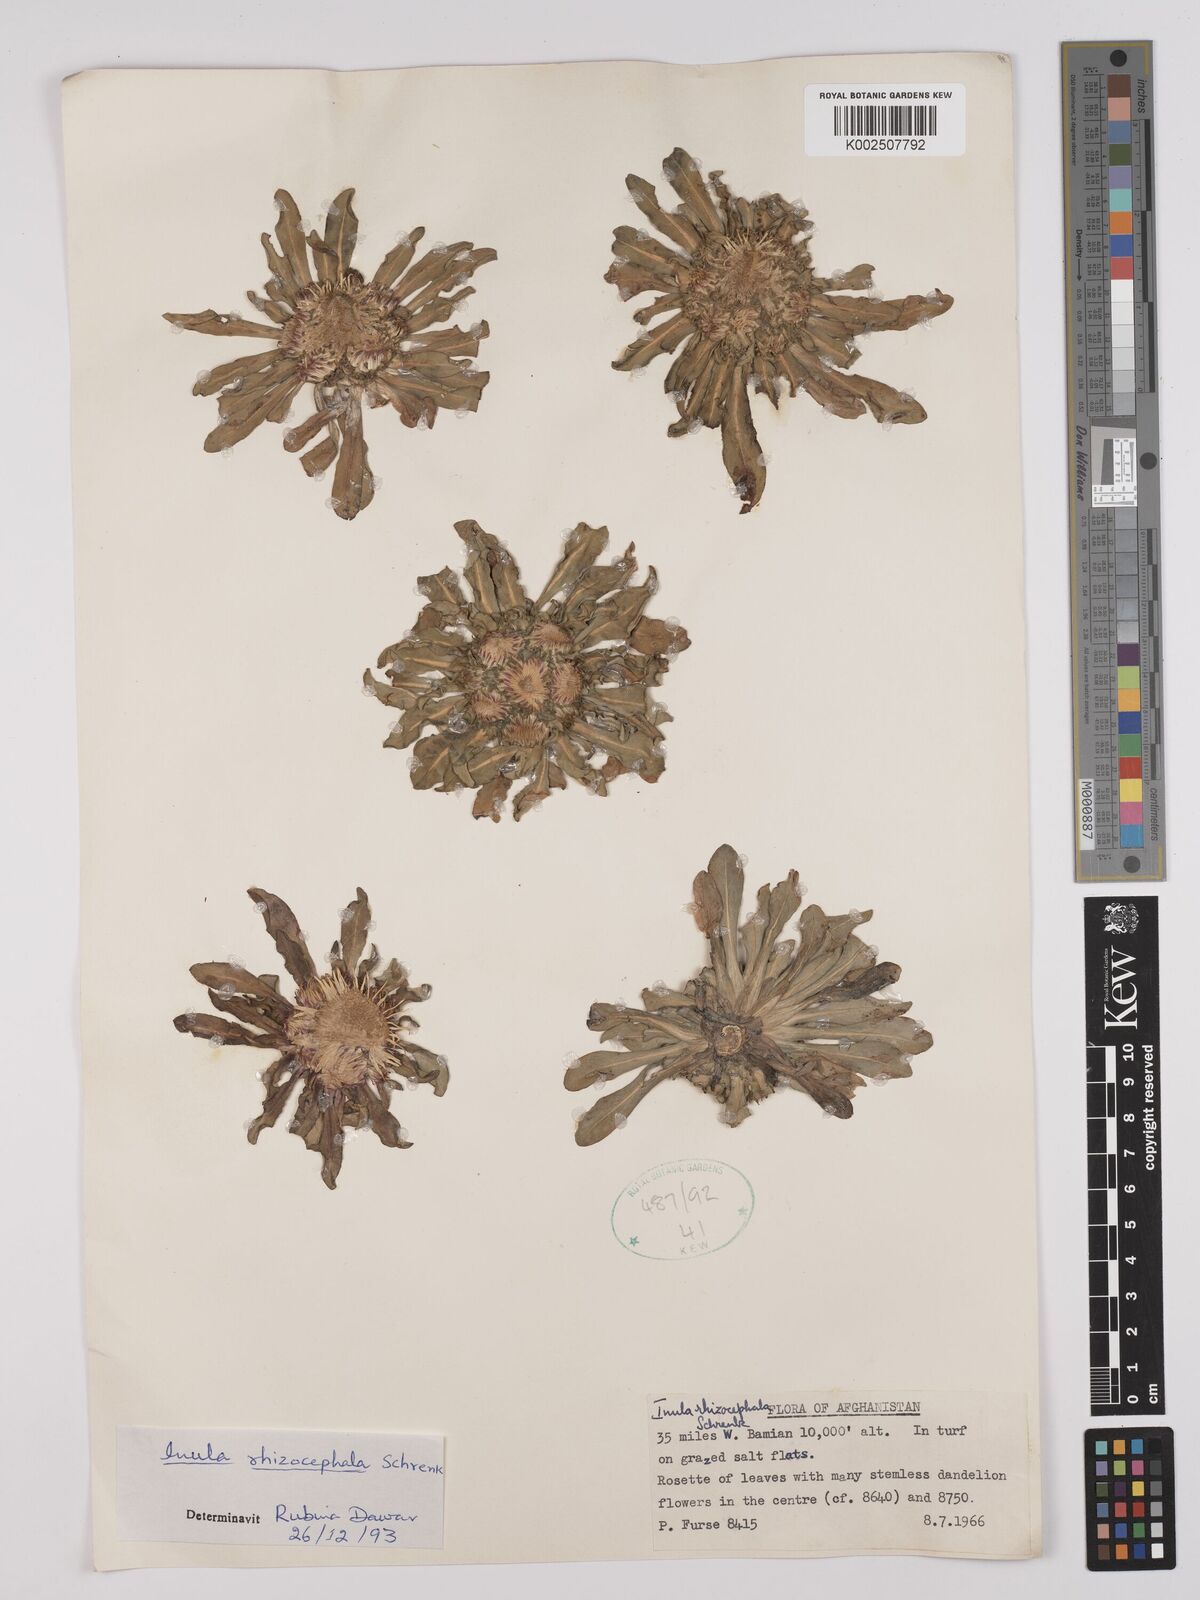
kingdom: Plantae
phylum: Tracheophyta
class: Magnoliopsida
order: Asterales
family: Asteraceae
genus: Inula
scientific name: Inula rhizocephala
